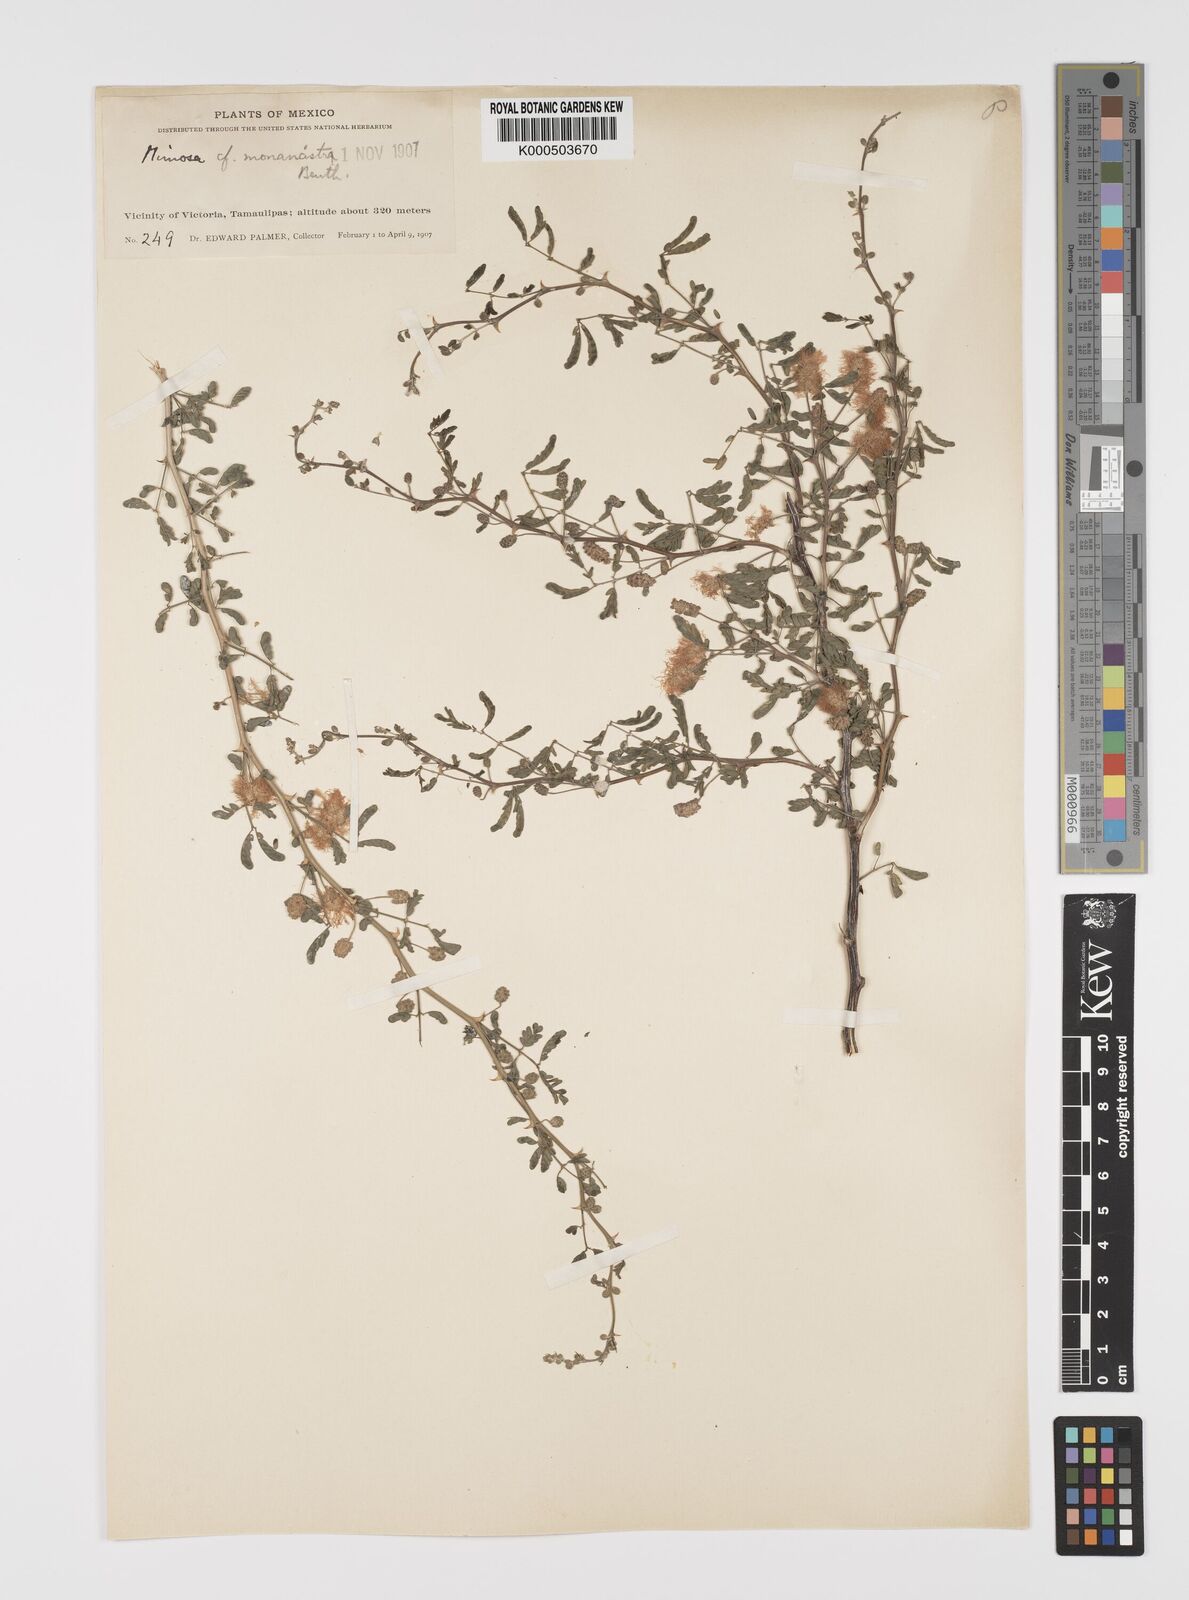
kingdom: Plantae
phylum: Tracheophyta
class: Magnoliopsida
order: Fabales
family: Fabaceae
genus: Mimosa
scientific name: Mimosa monancistra
